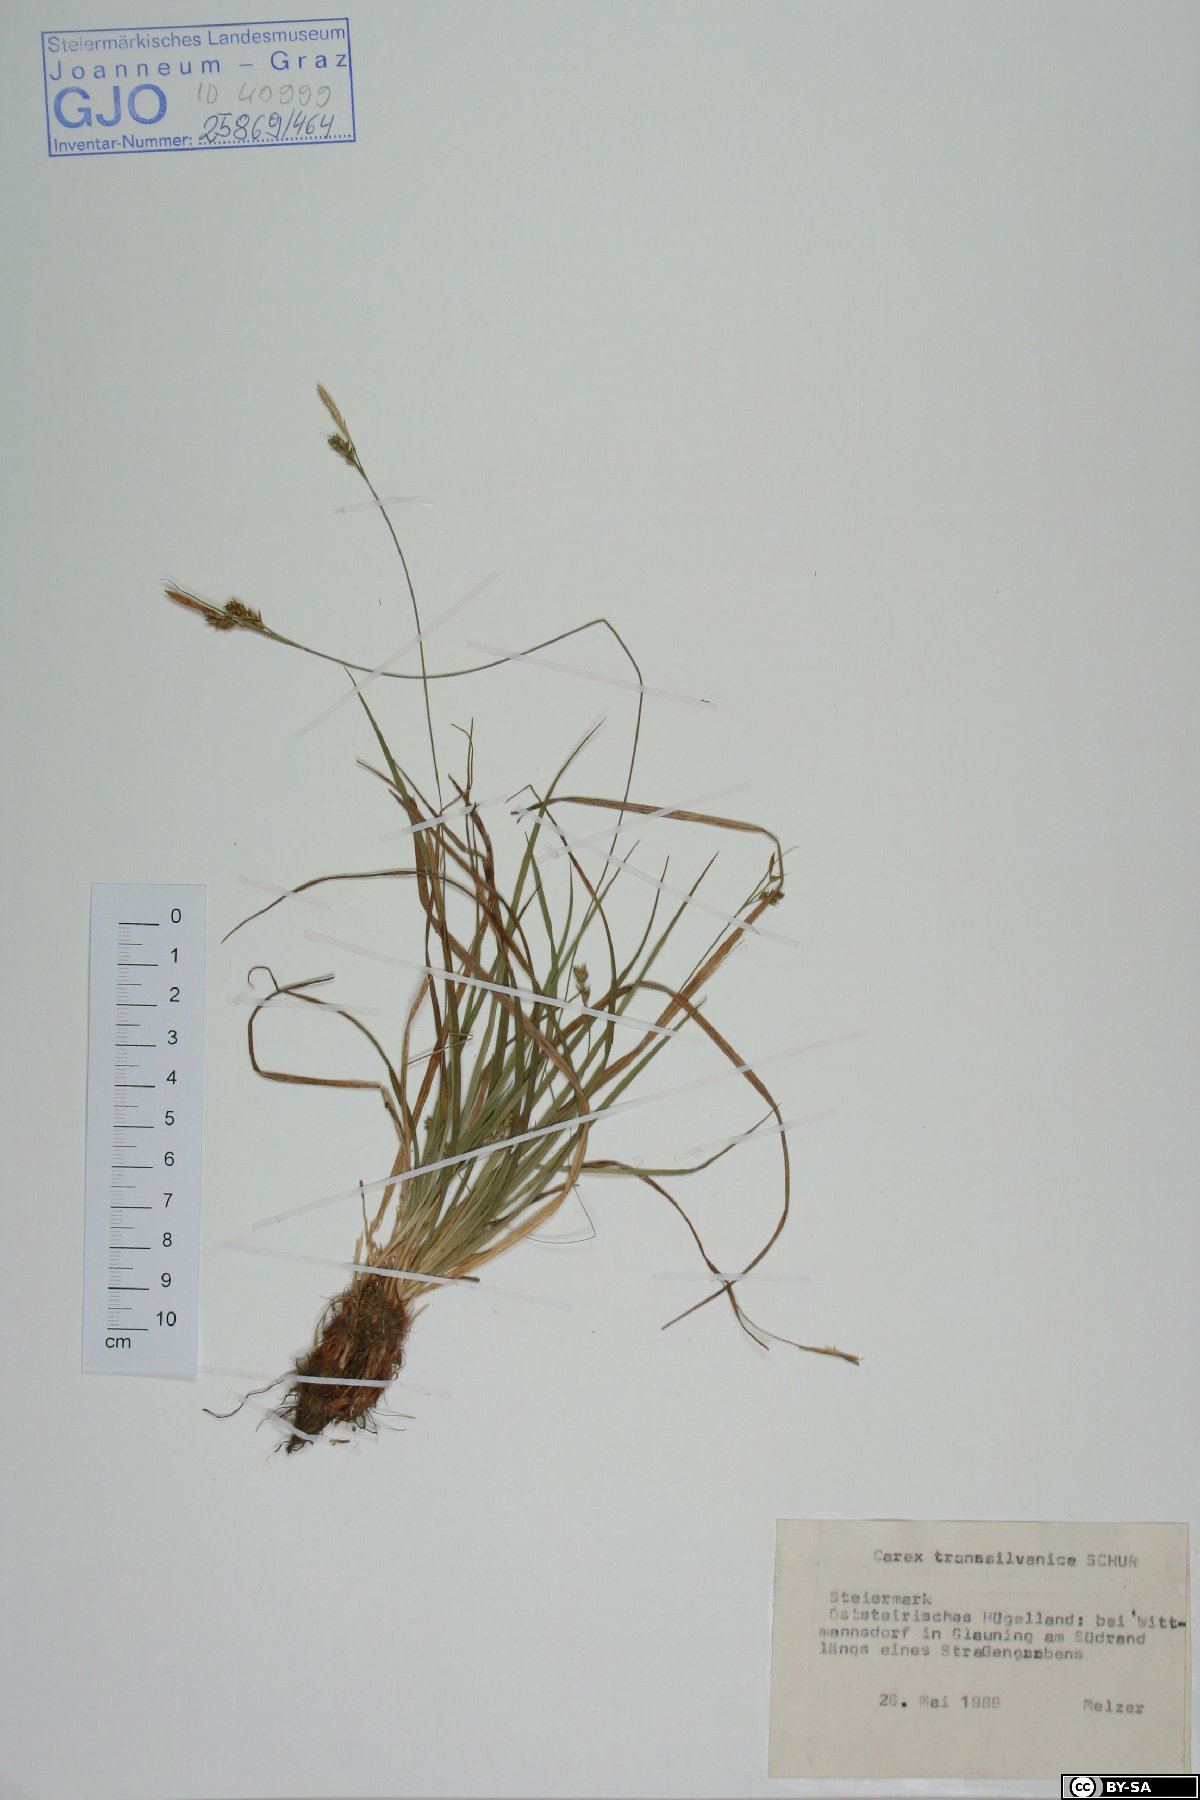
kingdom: Plantae
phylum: Tracheophyta
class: Liliopsida
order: Poales
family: Cyperaceae
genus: Carex
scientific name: Carex depressa
